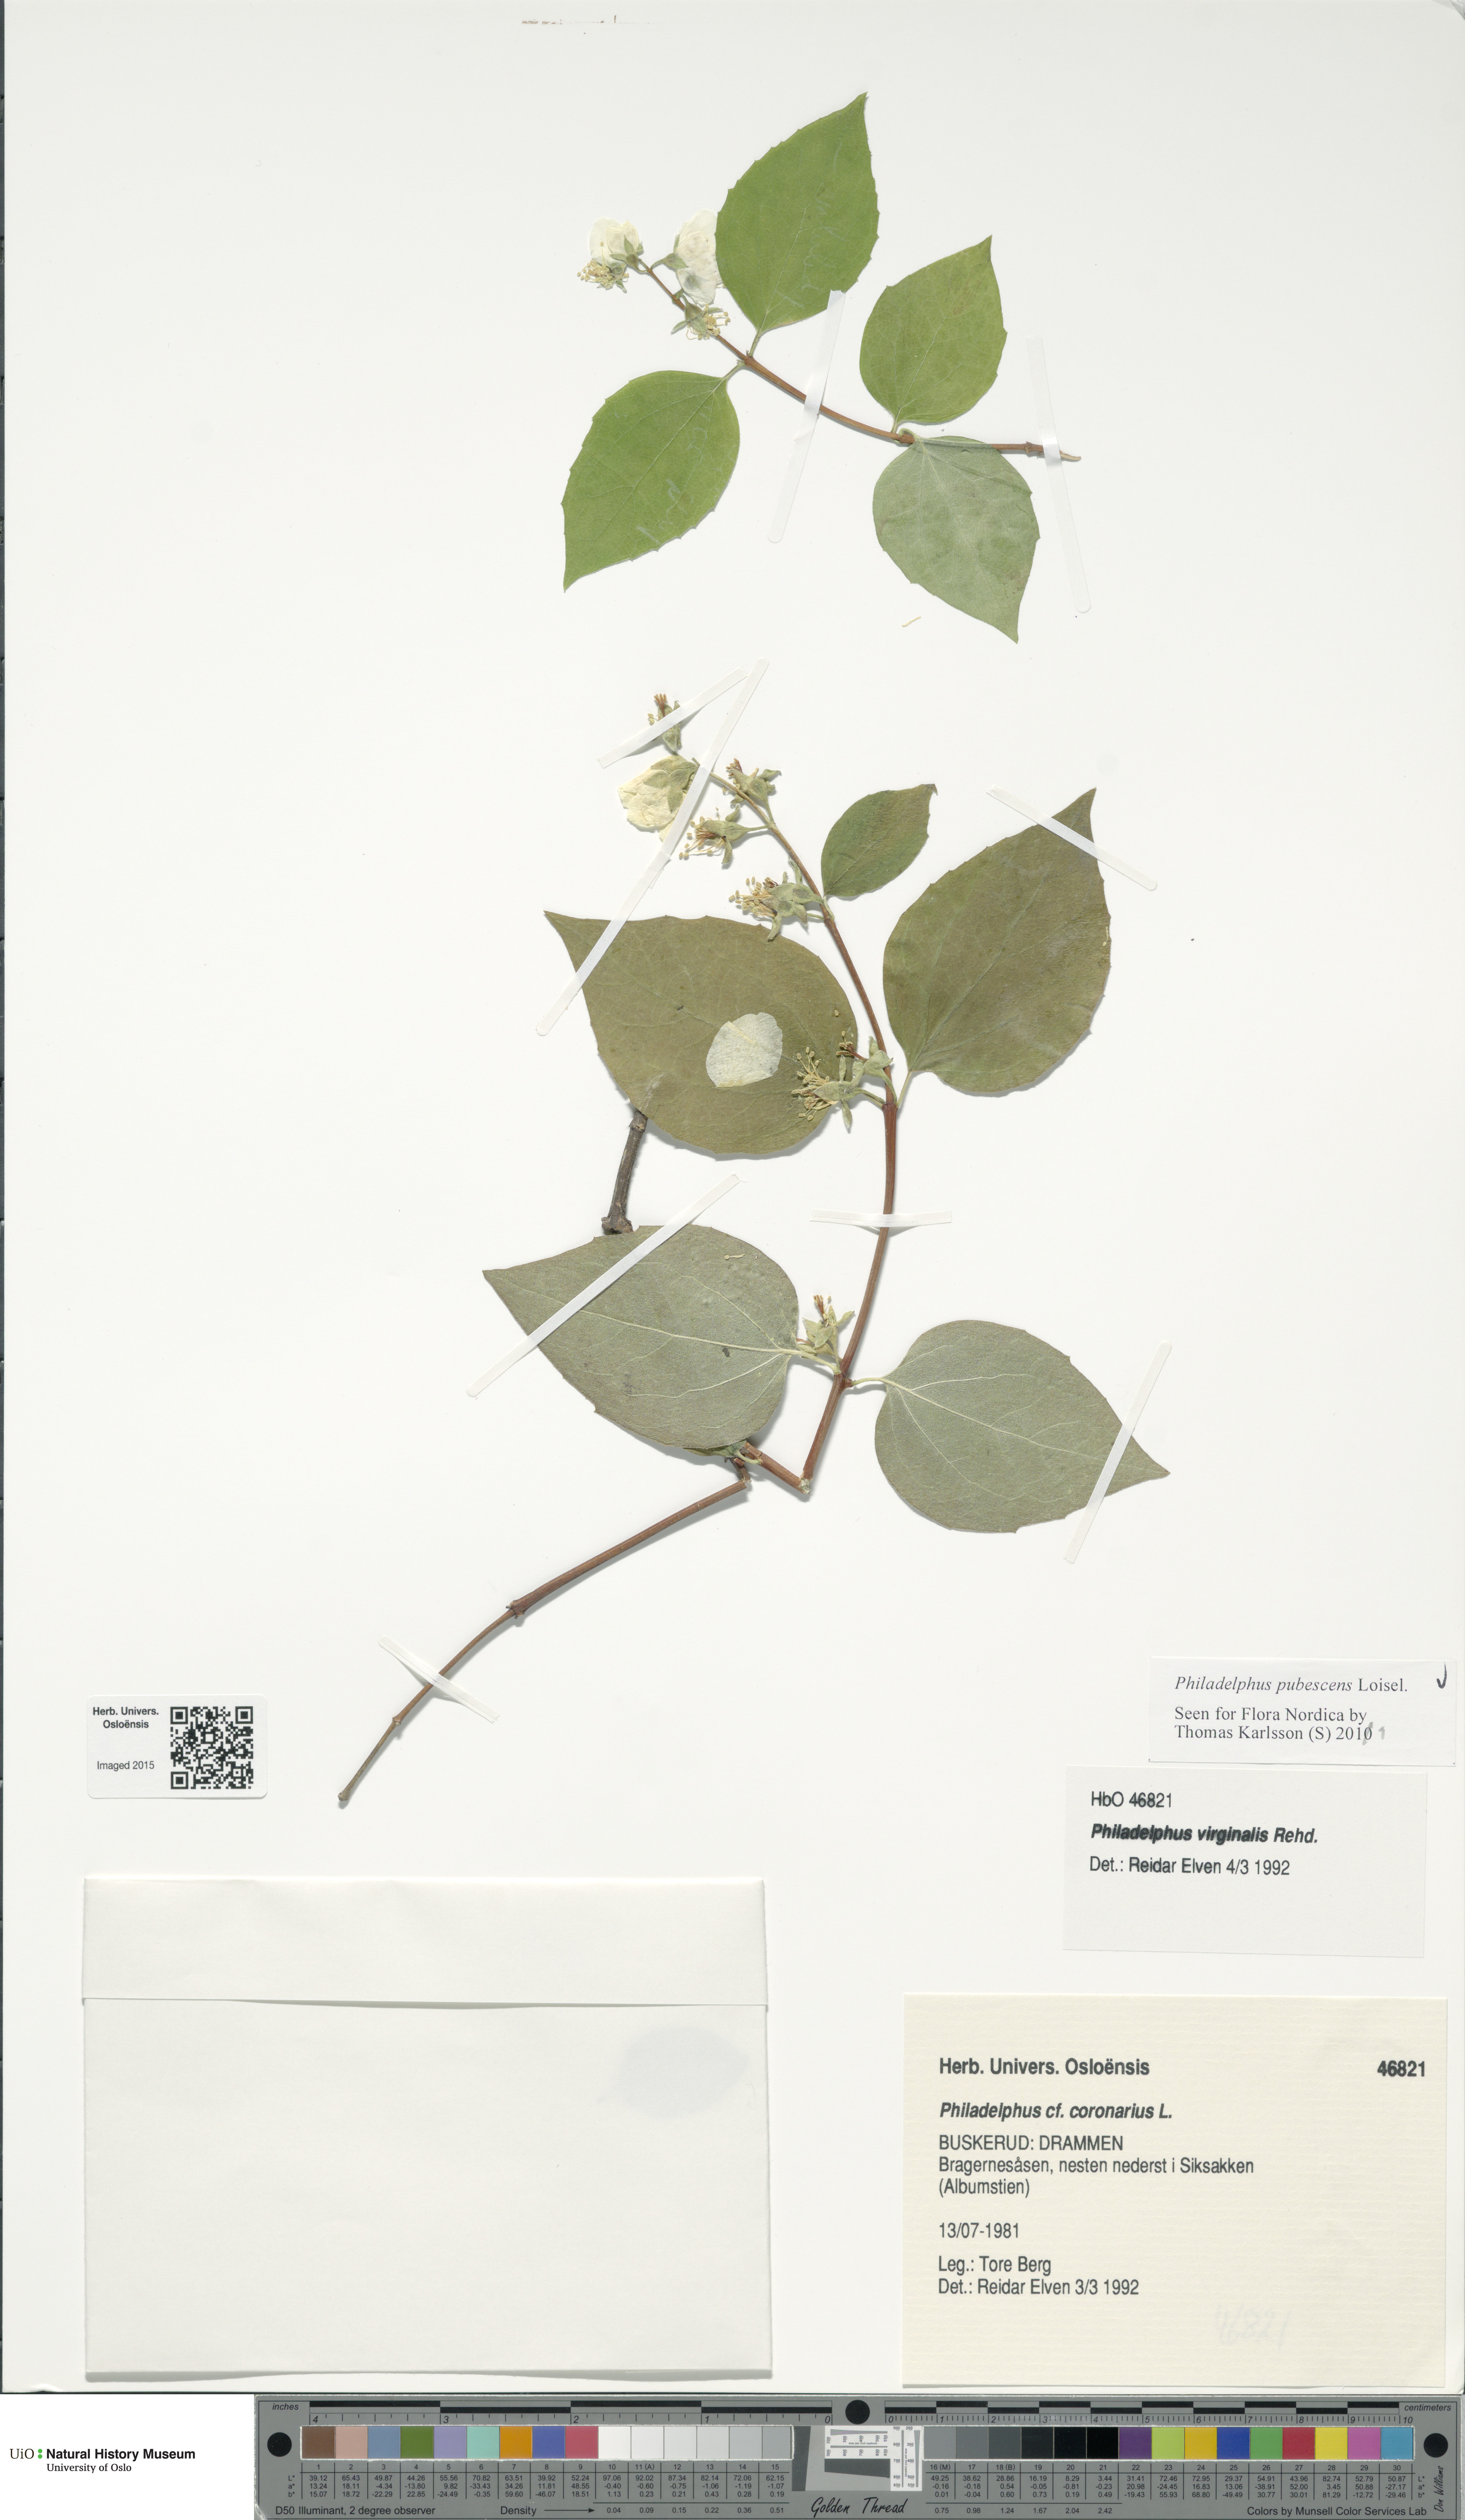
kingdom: Plantae
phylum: Tracheophyta
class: Magnoliopsida
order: Cornales
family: Hydrangeaceae
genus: Philadelphus
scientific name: Philadelphus pubescens
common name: Broadleaf mock orange
